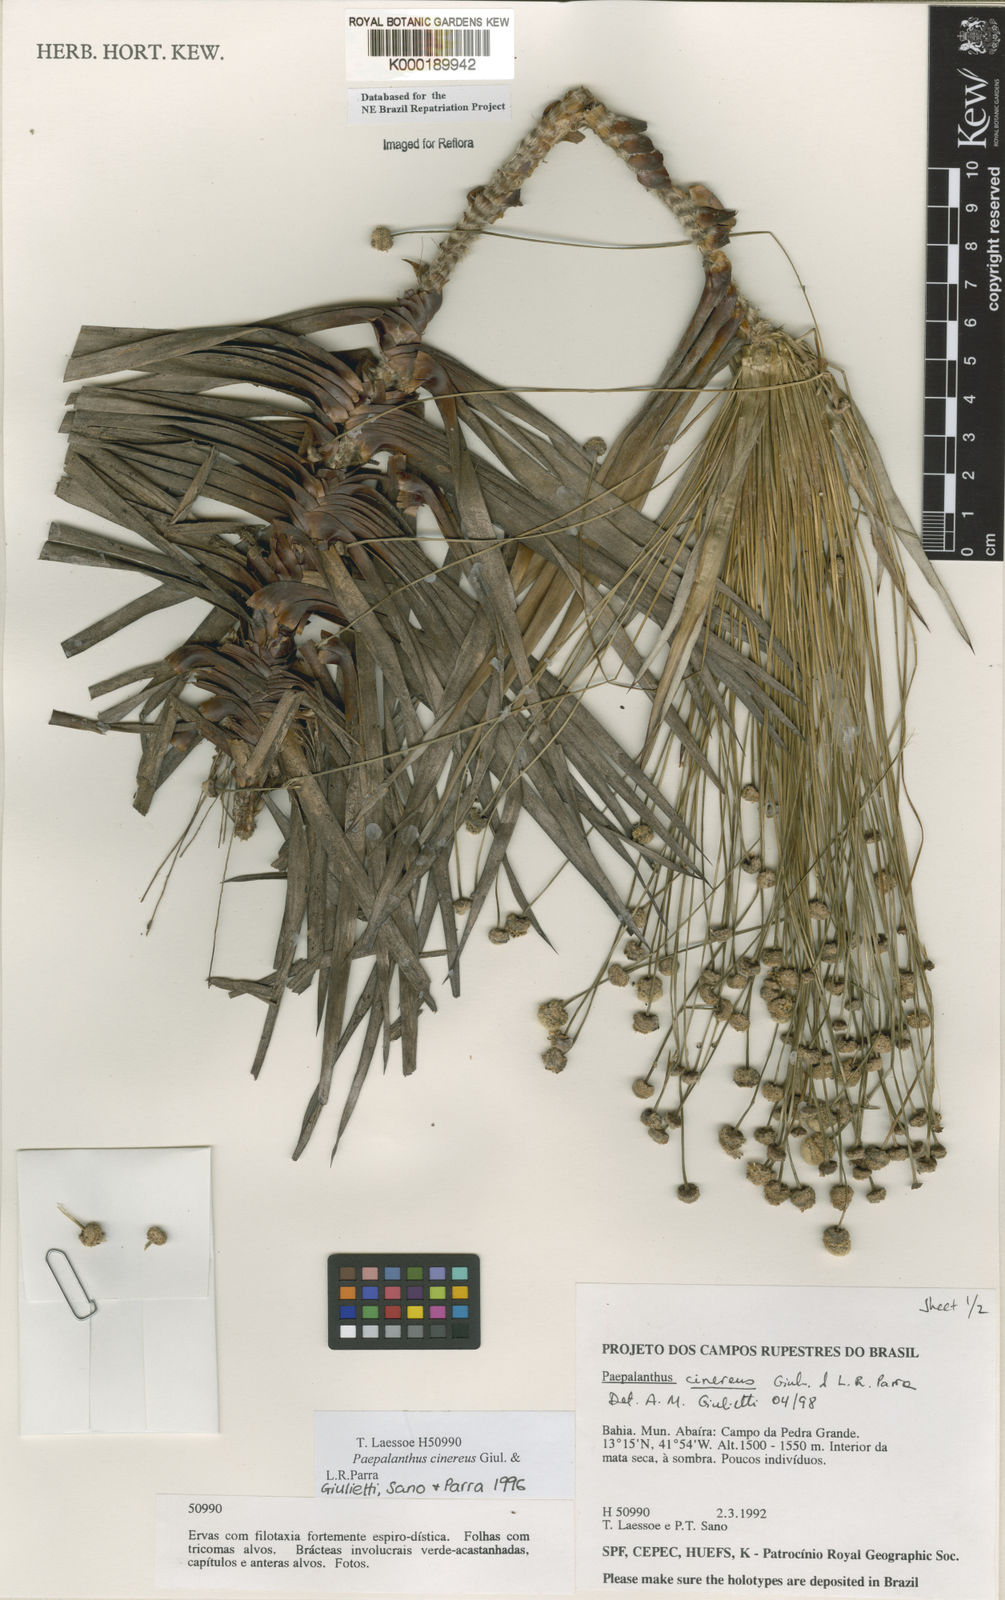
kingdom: Plantae
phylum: Tracheophyta
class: Liliopsida
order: Poales
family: Eriocaulaceae
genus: Paepalanthus
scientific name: Paepalanthus cinereus
